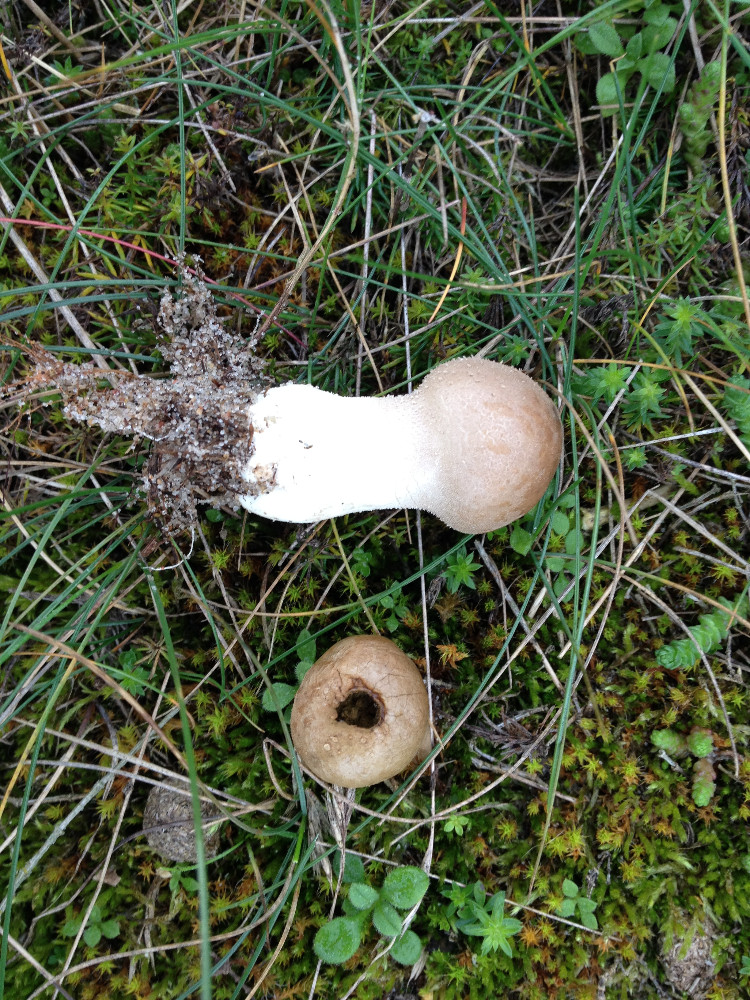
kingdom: Fungi
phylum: Basidiomycota
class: Agaricomycetes
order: Agaricales
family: Lycoperdaceae
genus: Lycoperdon
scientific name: Lycoperdon lividum
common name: mark-støvbold
